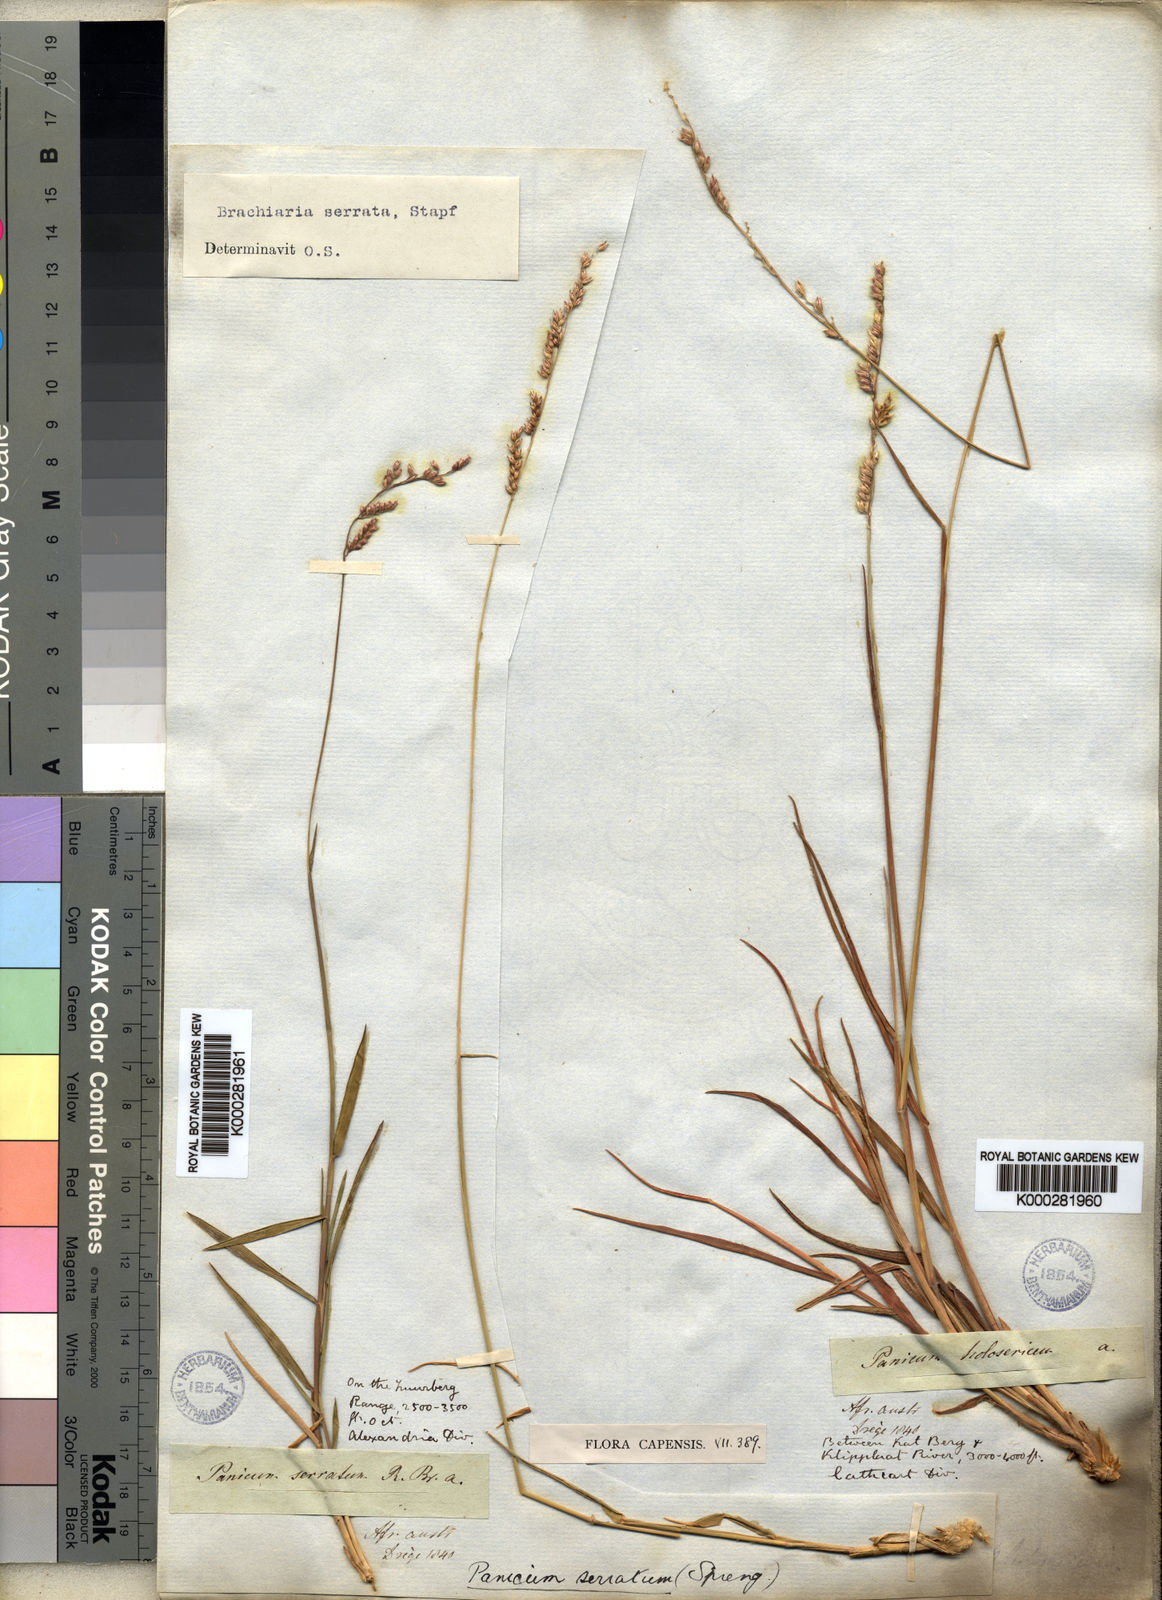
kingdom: Plantae
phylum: Tracheophyta
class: Liliopsida
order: Poales
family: Poaceae
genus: Urochloa
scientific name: Urochloa serrata
